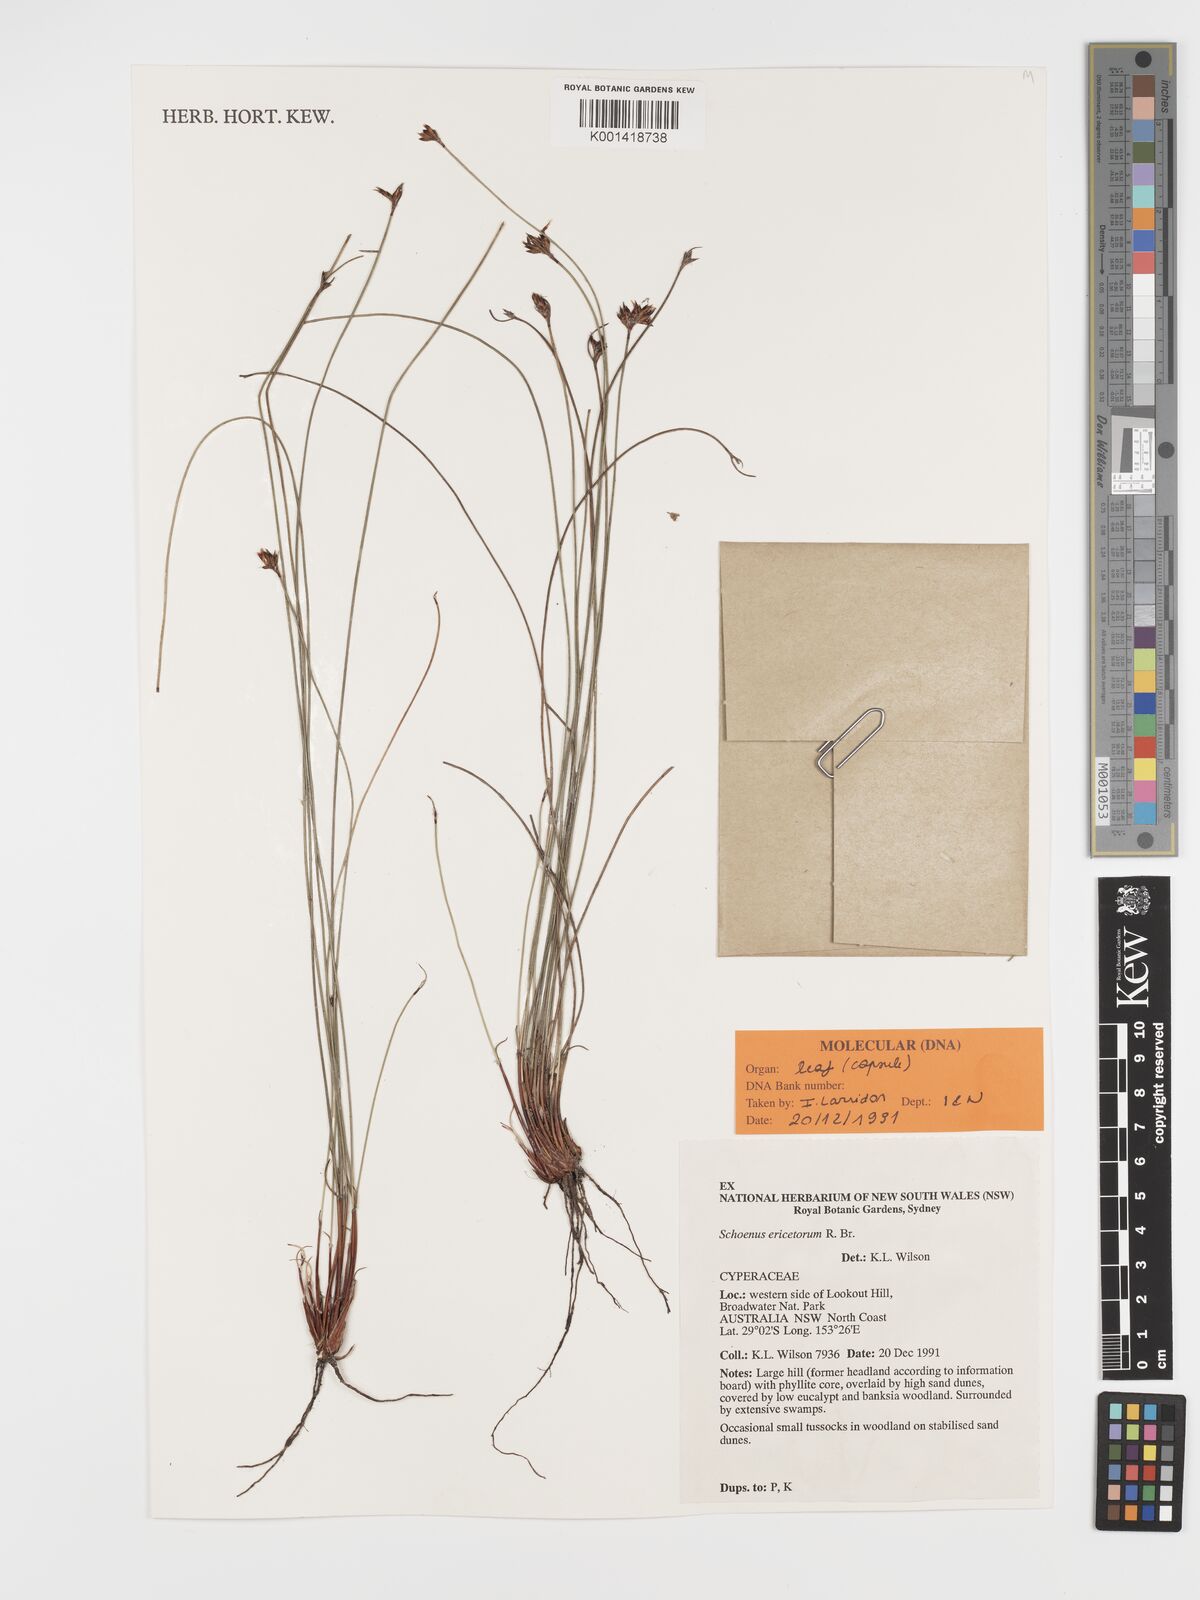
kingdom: Plantae
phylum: Tracheophyta
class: Liliopsida
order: Poales
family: Cyperaceae
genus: Schoenus
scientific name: Schoenus ericetorum
